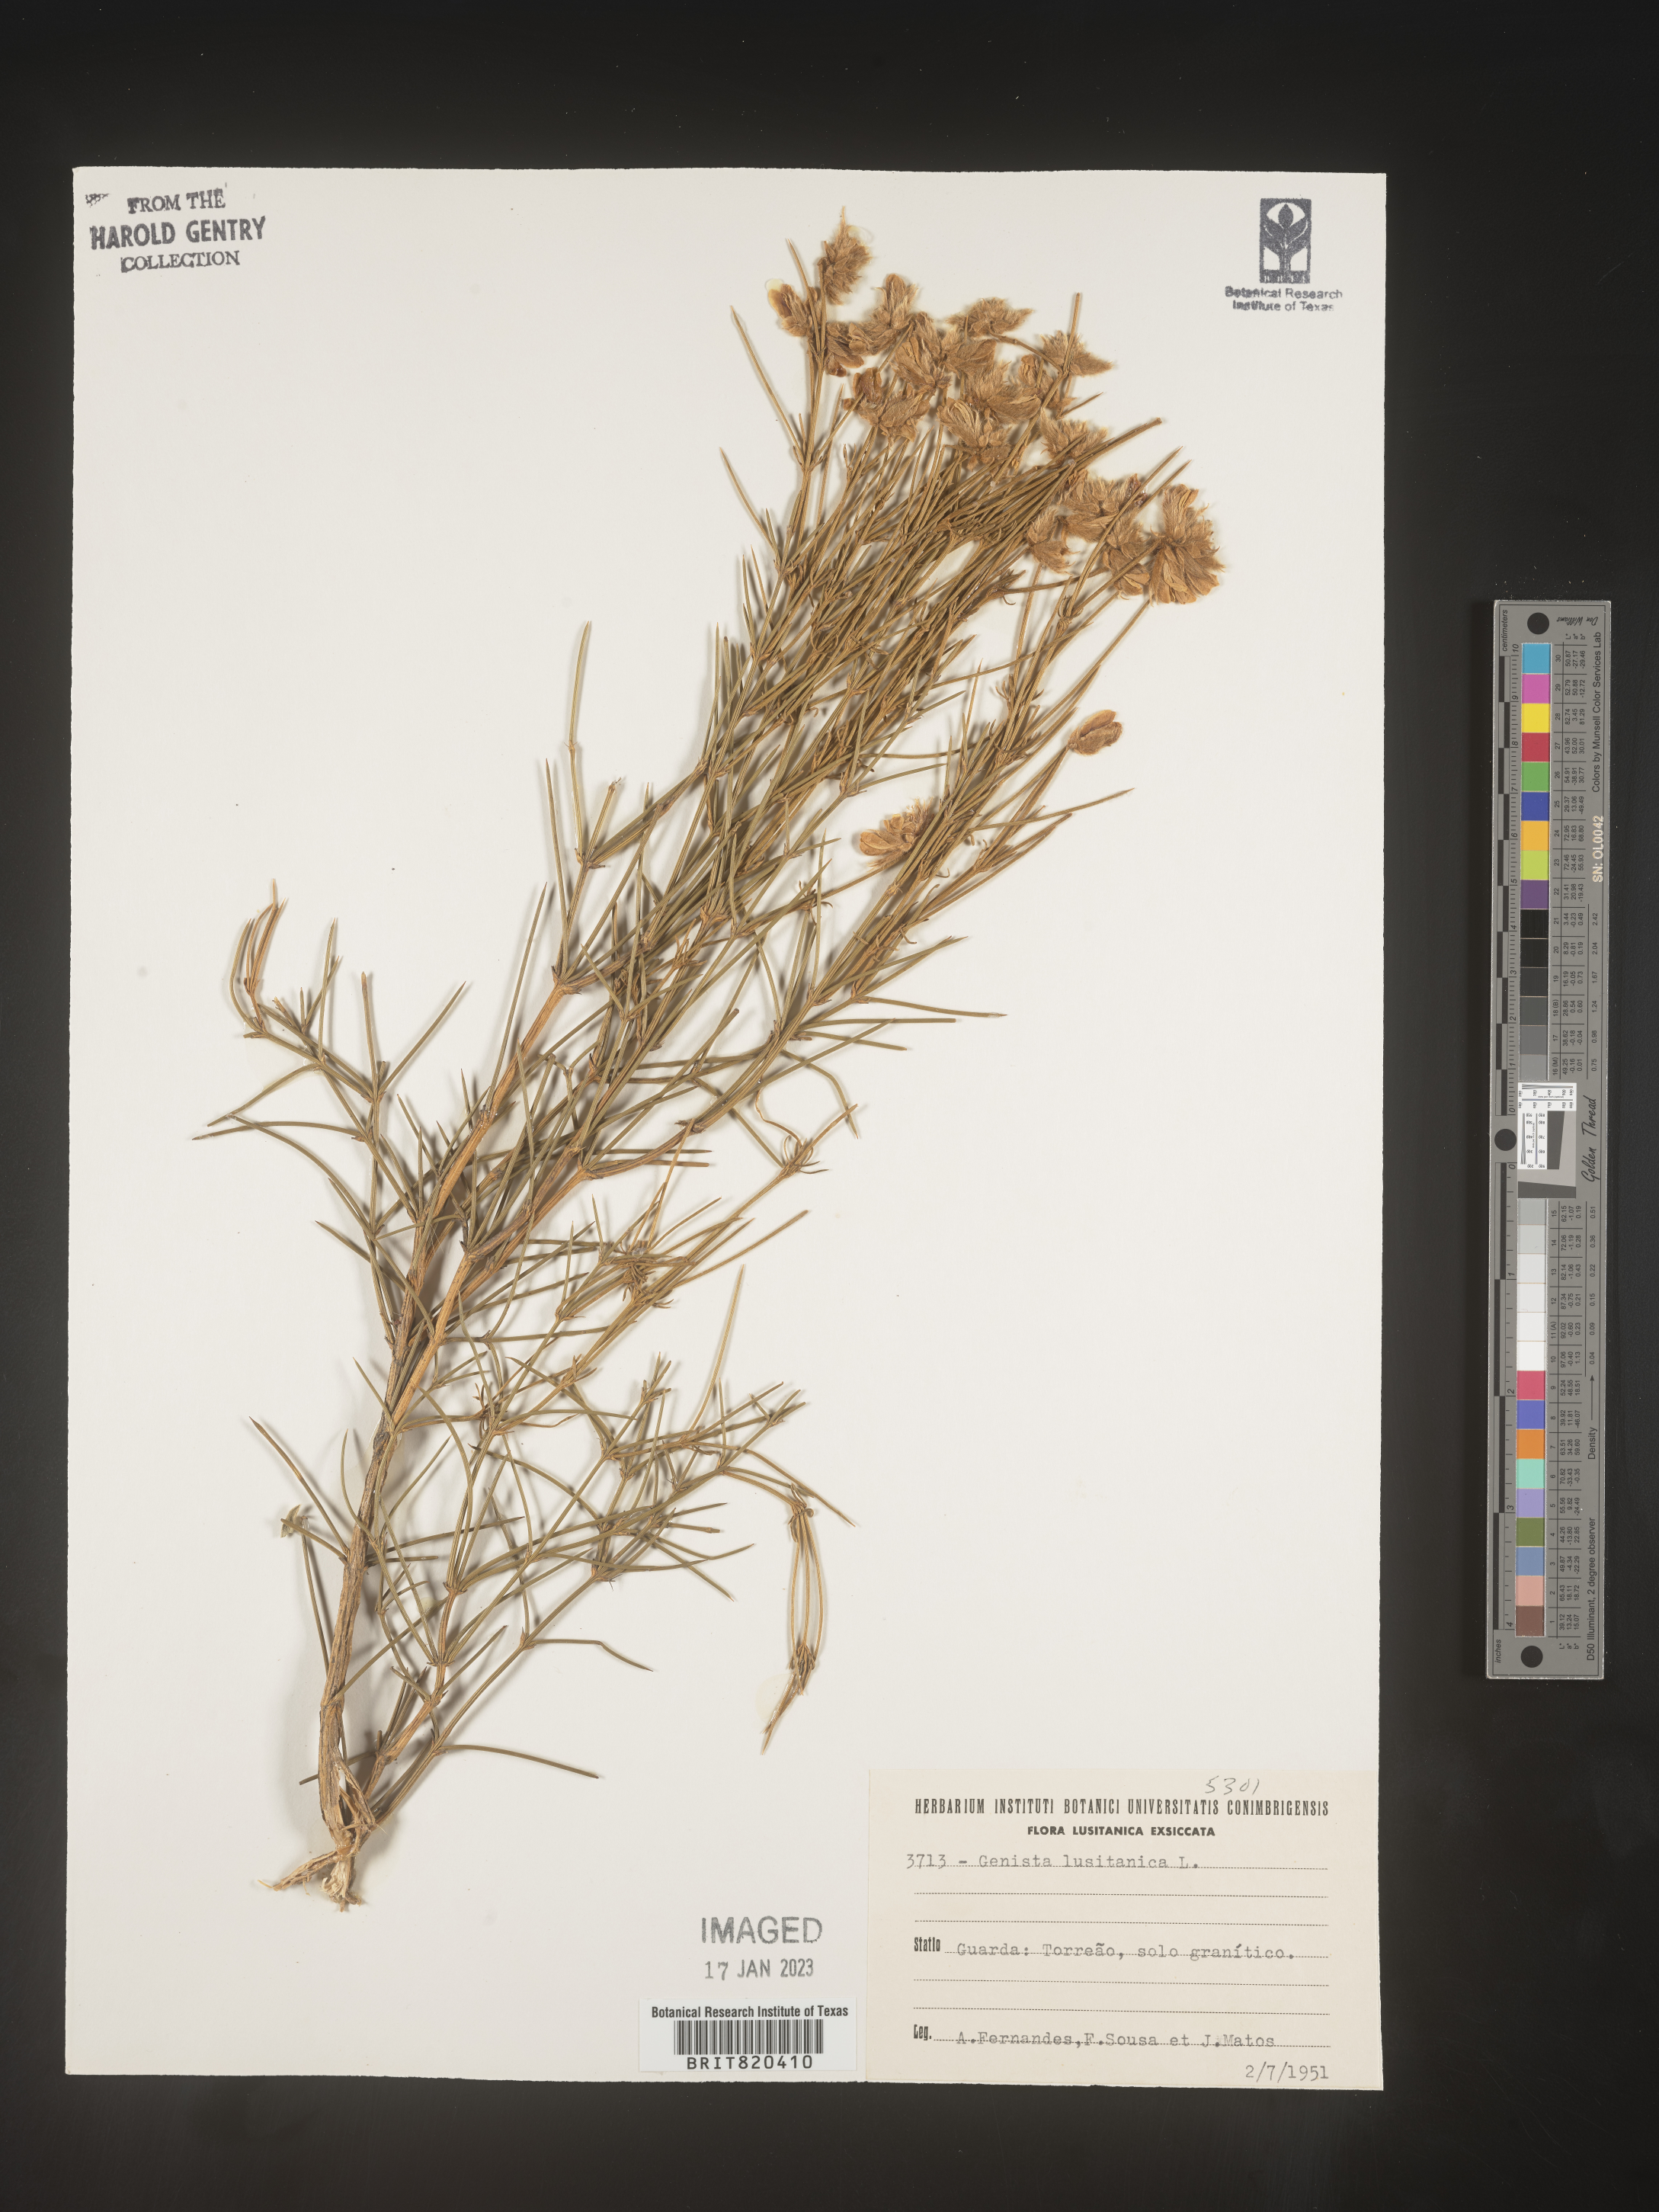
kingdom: Plantae
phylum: Tracheophyta
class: Magnoliopsida
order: Fabales
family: Fabaceae
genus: Genista
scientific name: Genista
